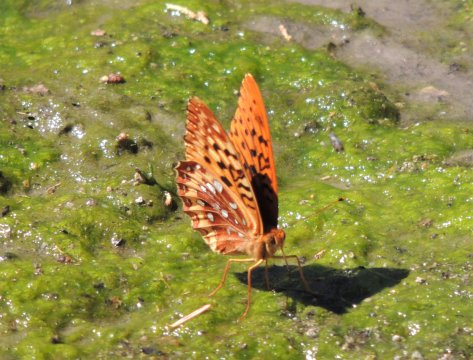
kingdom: Animalia
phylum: Arthropoda
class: Insecta
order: Lepidoptera
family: Nymphalidae
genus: Speyeria
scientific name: Speyeria cybele
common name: Great Spangled Fritillary
